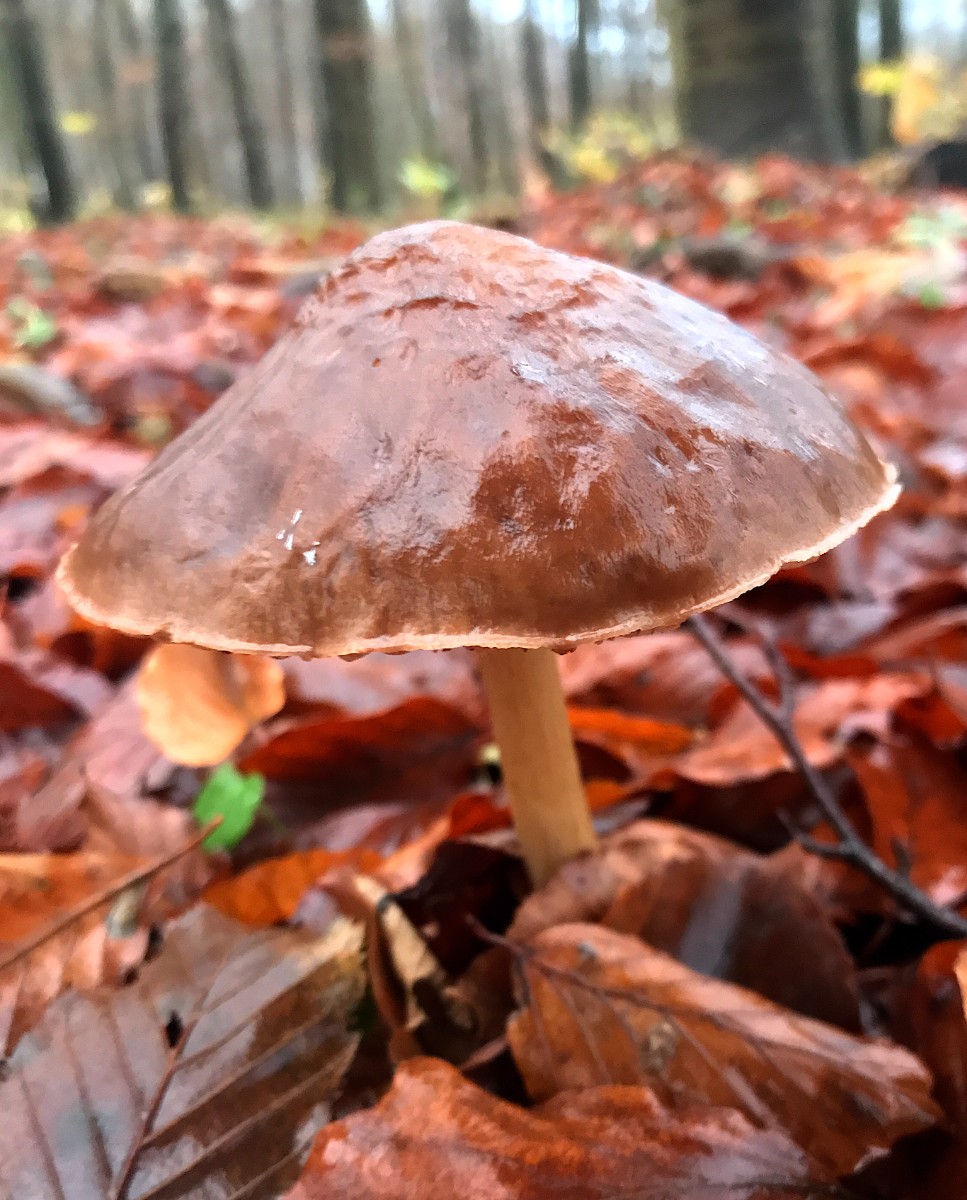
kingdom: Fungi
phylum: Basidiomycota
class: Agaricomycetes
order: Agaricales
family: Pluteaceae
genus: Pluteus
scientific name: Pluteus cervinus
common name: sodfarvet skærmhat
